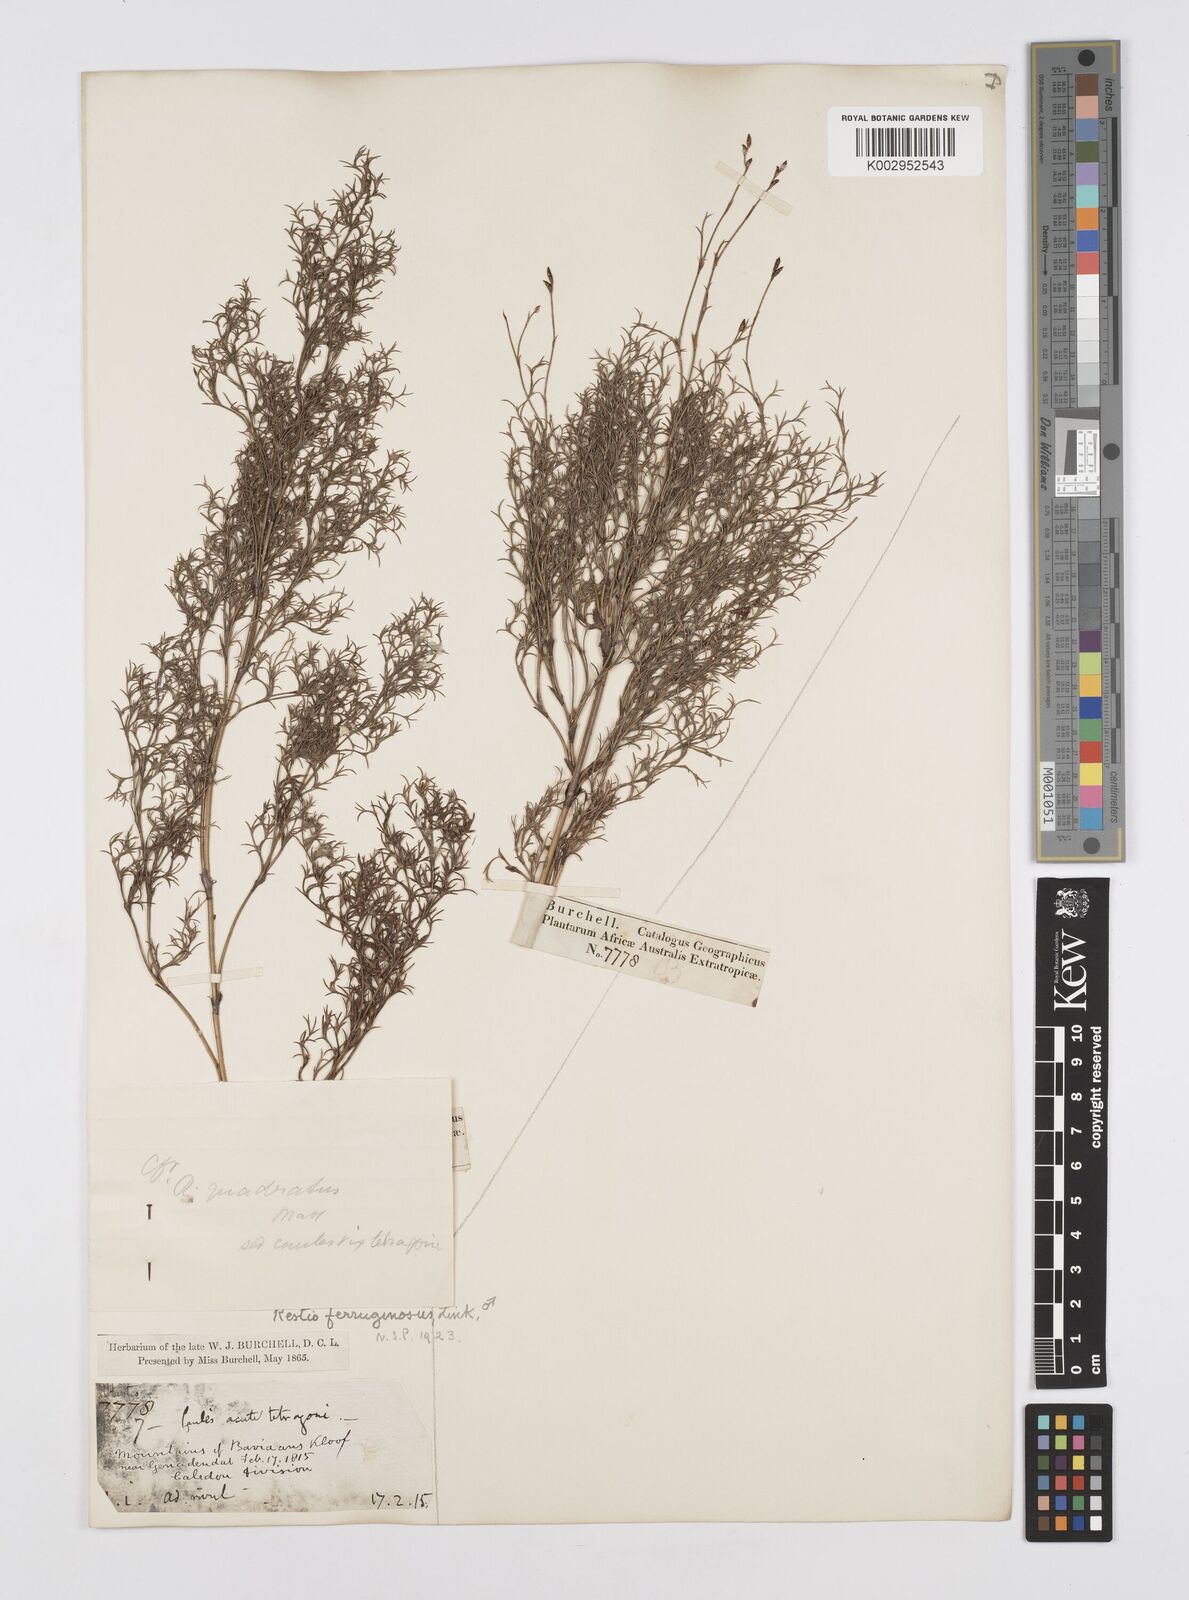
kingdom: Plantae
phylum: Tracheophyta
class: Liliopsida
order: Poales
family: Restionaceae
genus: Restio
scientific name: Restio gaudichaudianus
